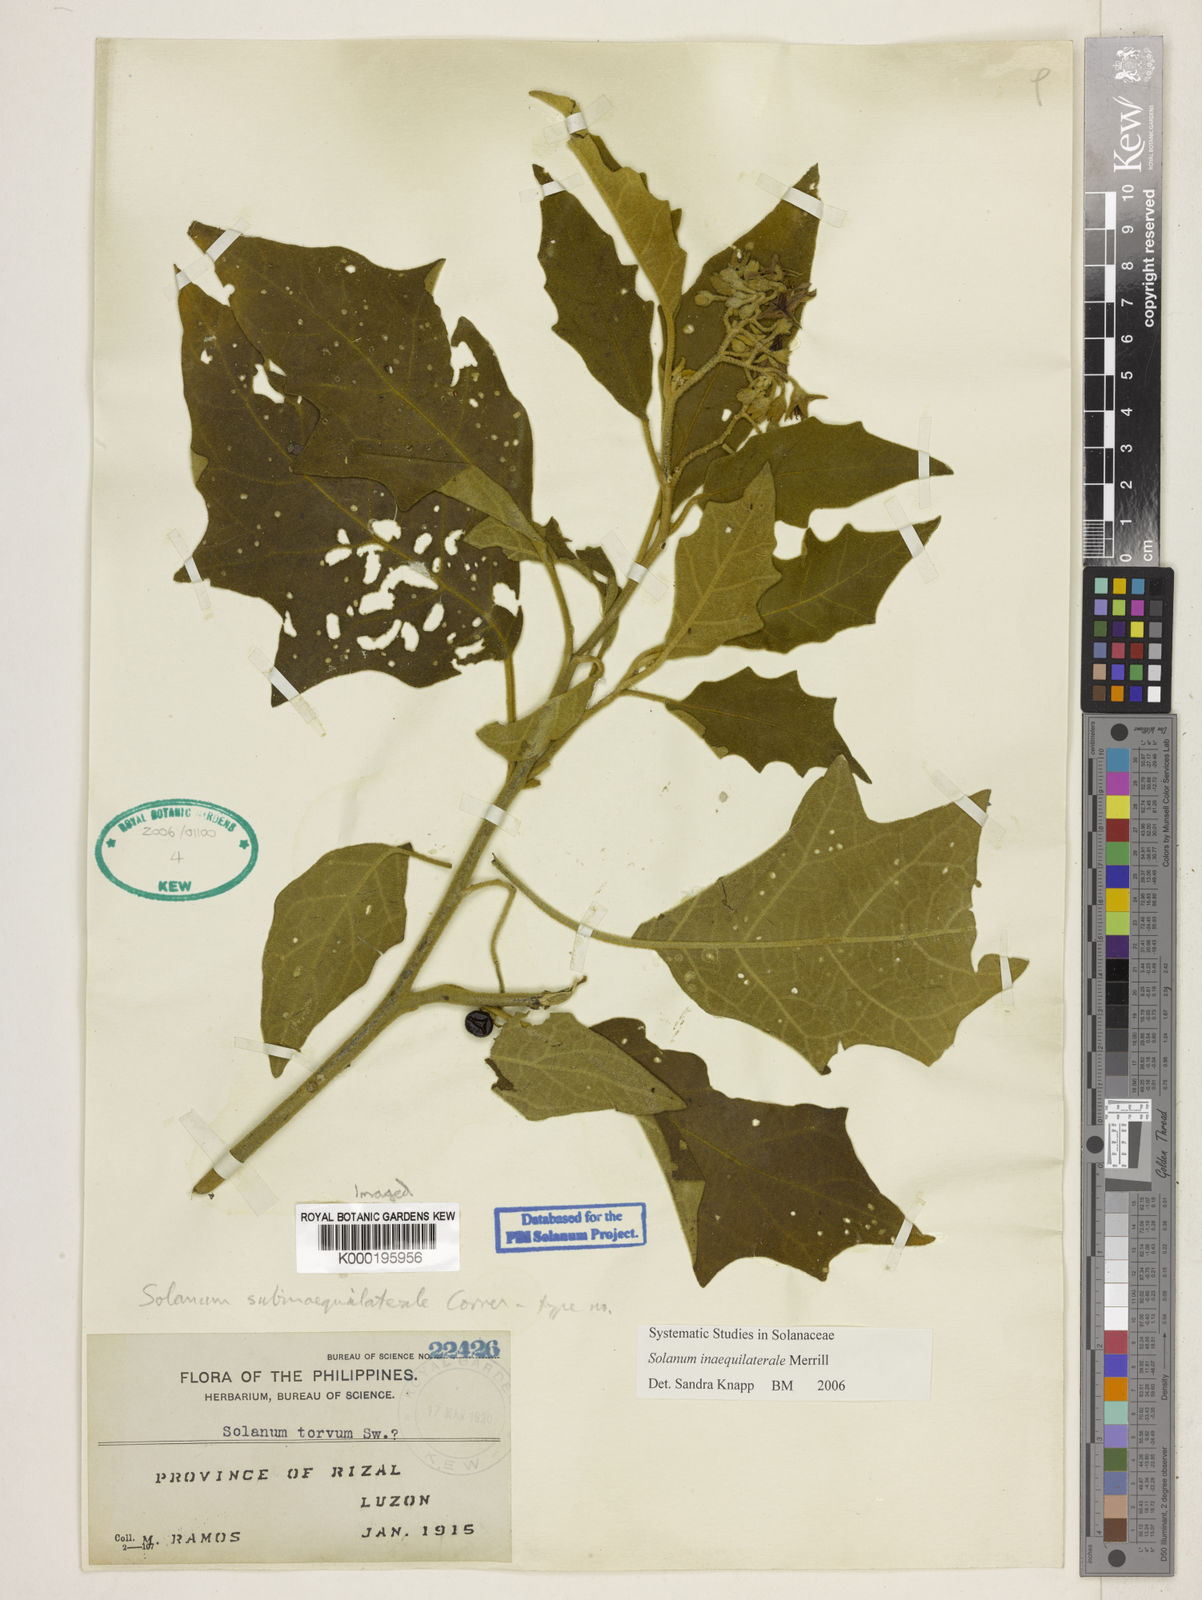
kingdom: Plantae
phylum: Tracheophyta
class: Magnoliopsida
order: Solanales
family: Solanaceae
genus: Solanum
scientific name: Solanum torvoideum
